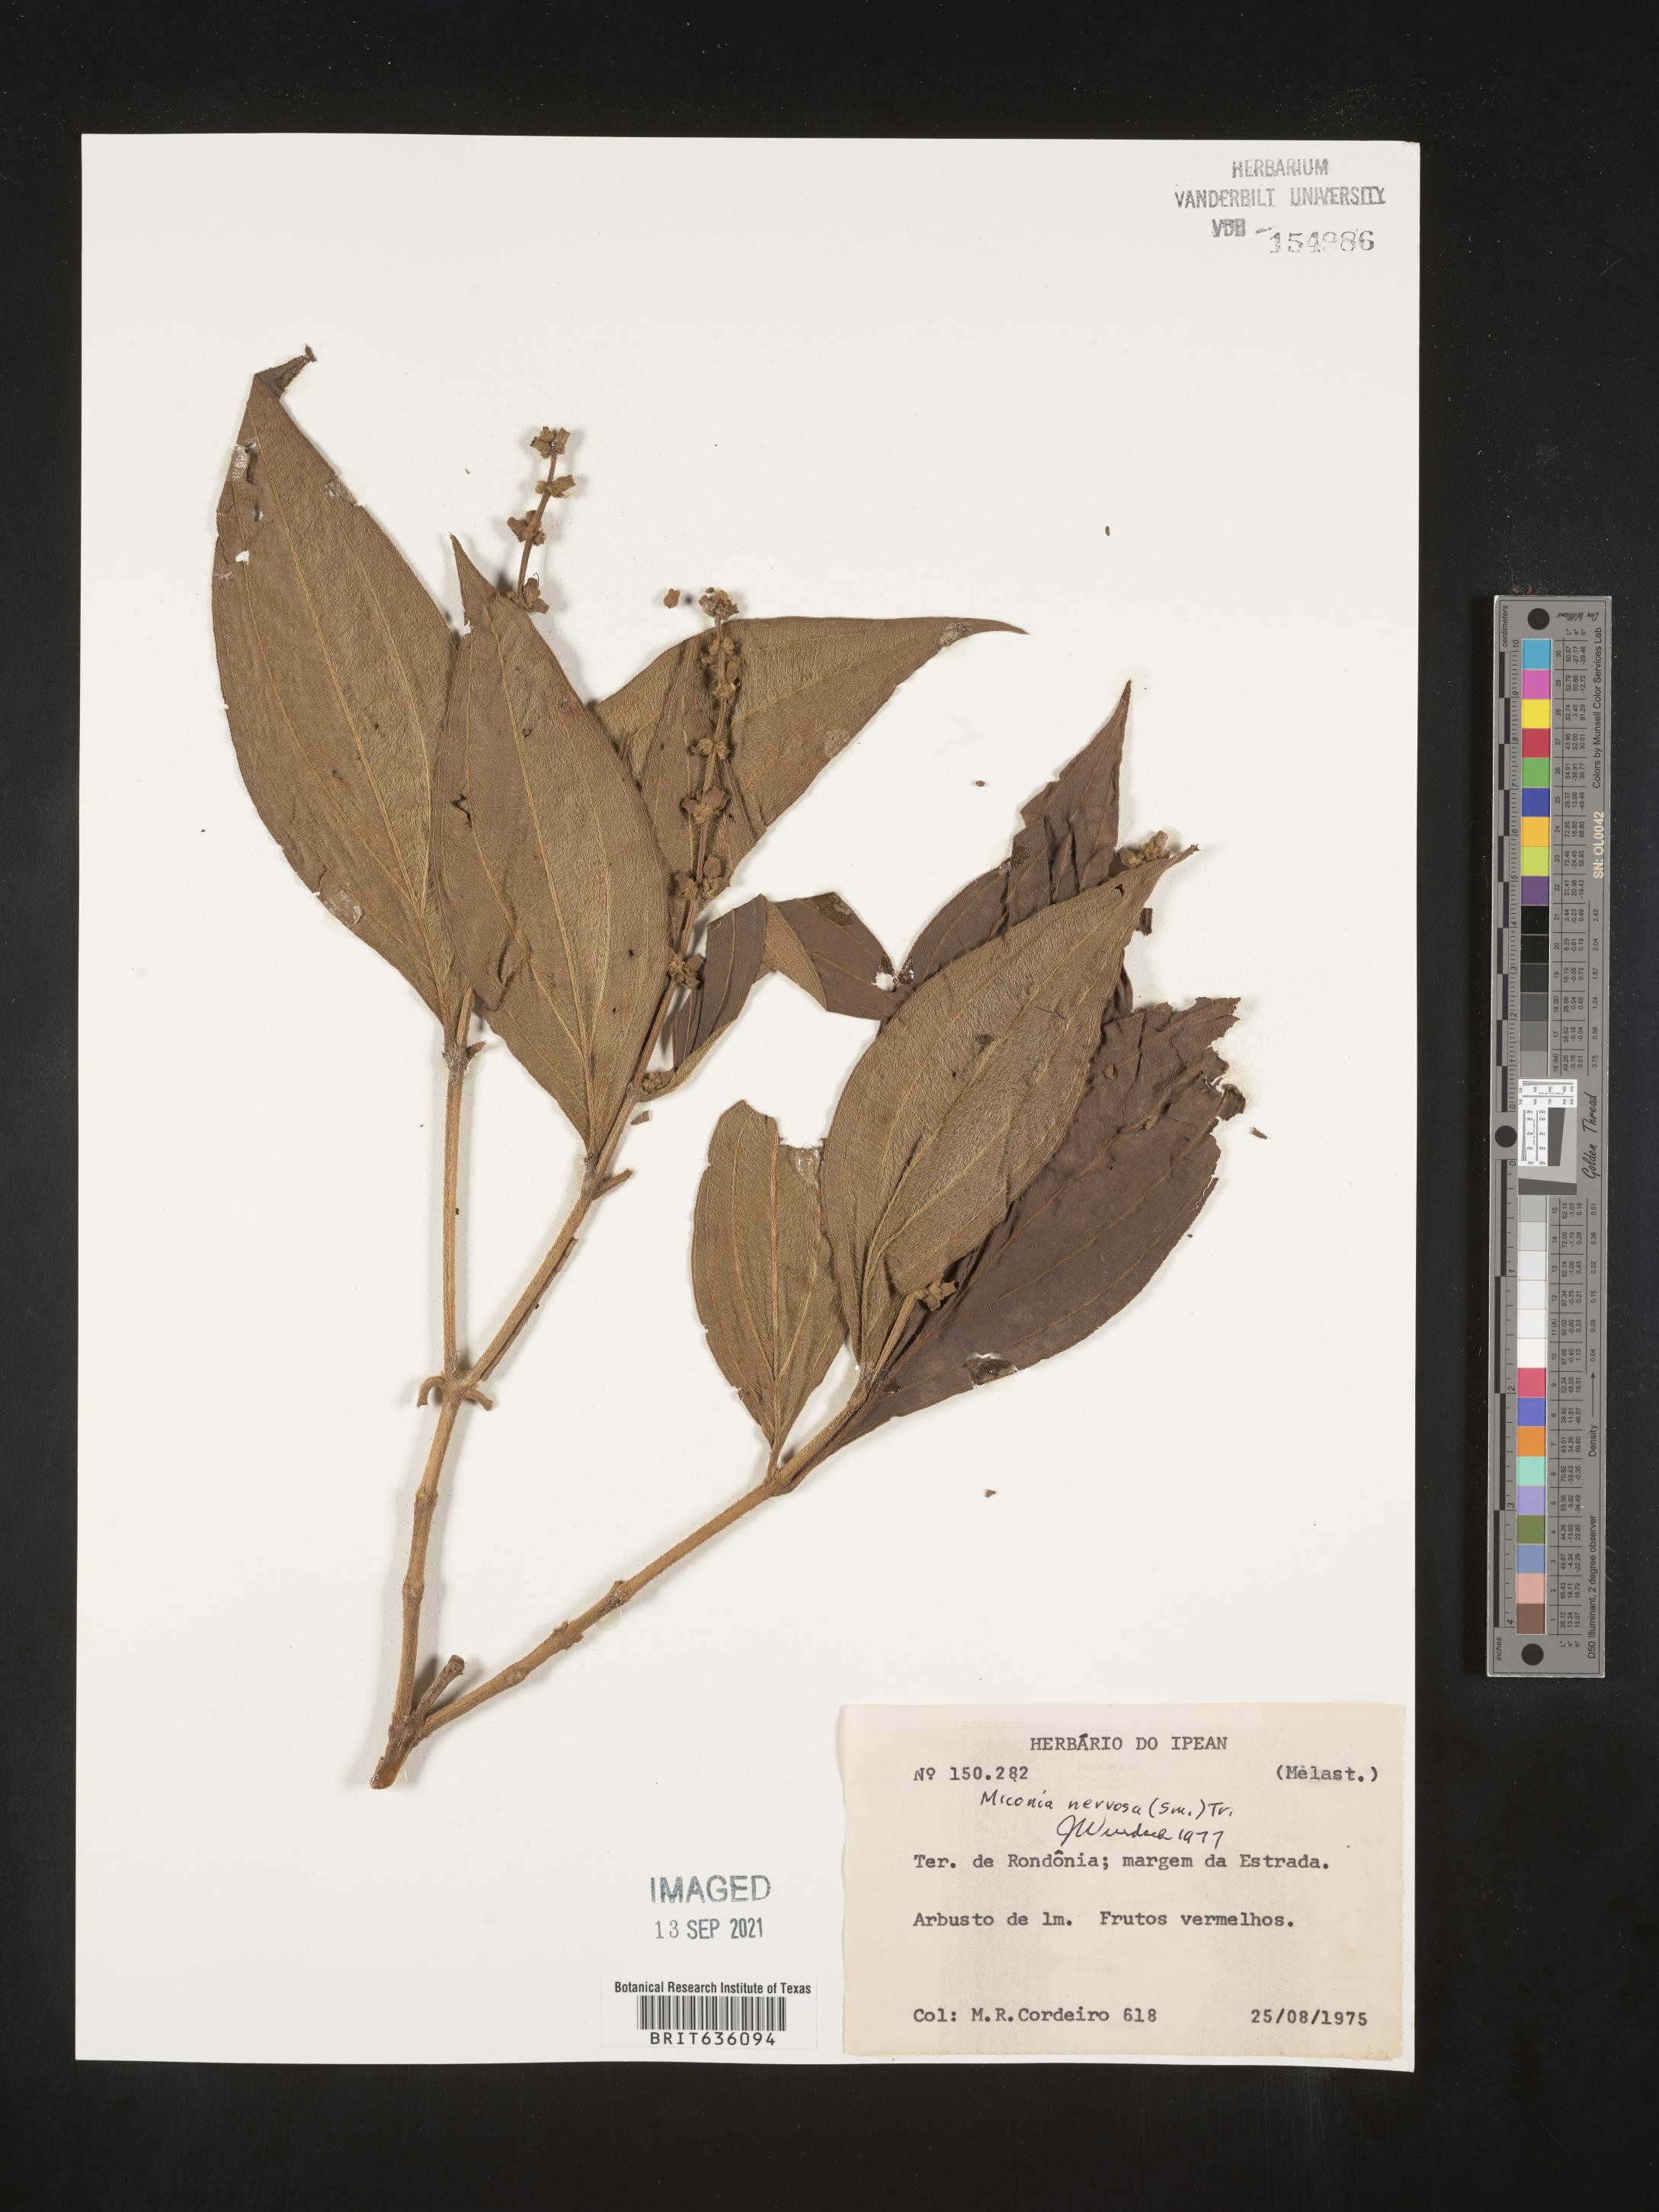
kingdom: Plantae
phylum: Tracheophyta
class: Magnoliopsida
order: Myrtales
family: Melastomataceae
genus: Miconia
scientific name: Miconia
